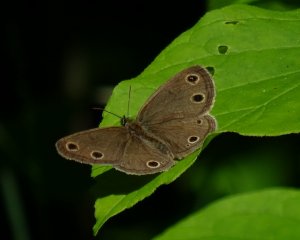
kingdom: Animalia
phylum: Arthropoda
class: Insecta
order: Lepidoptera
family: Nymphalidae
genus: Euptychia
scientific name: Euptychia cymela
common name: Little Wood Satyr
